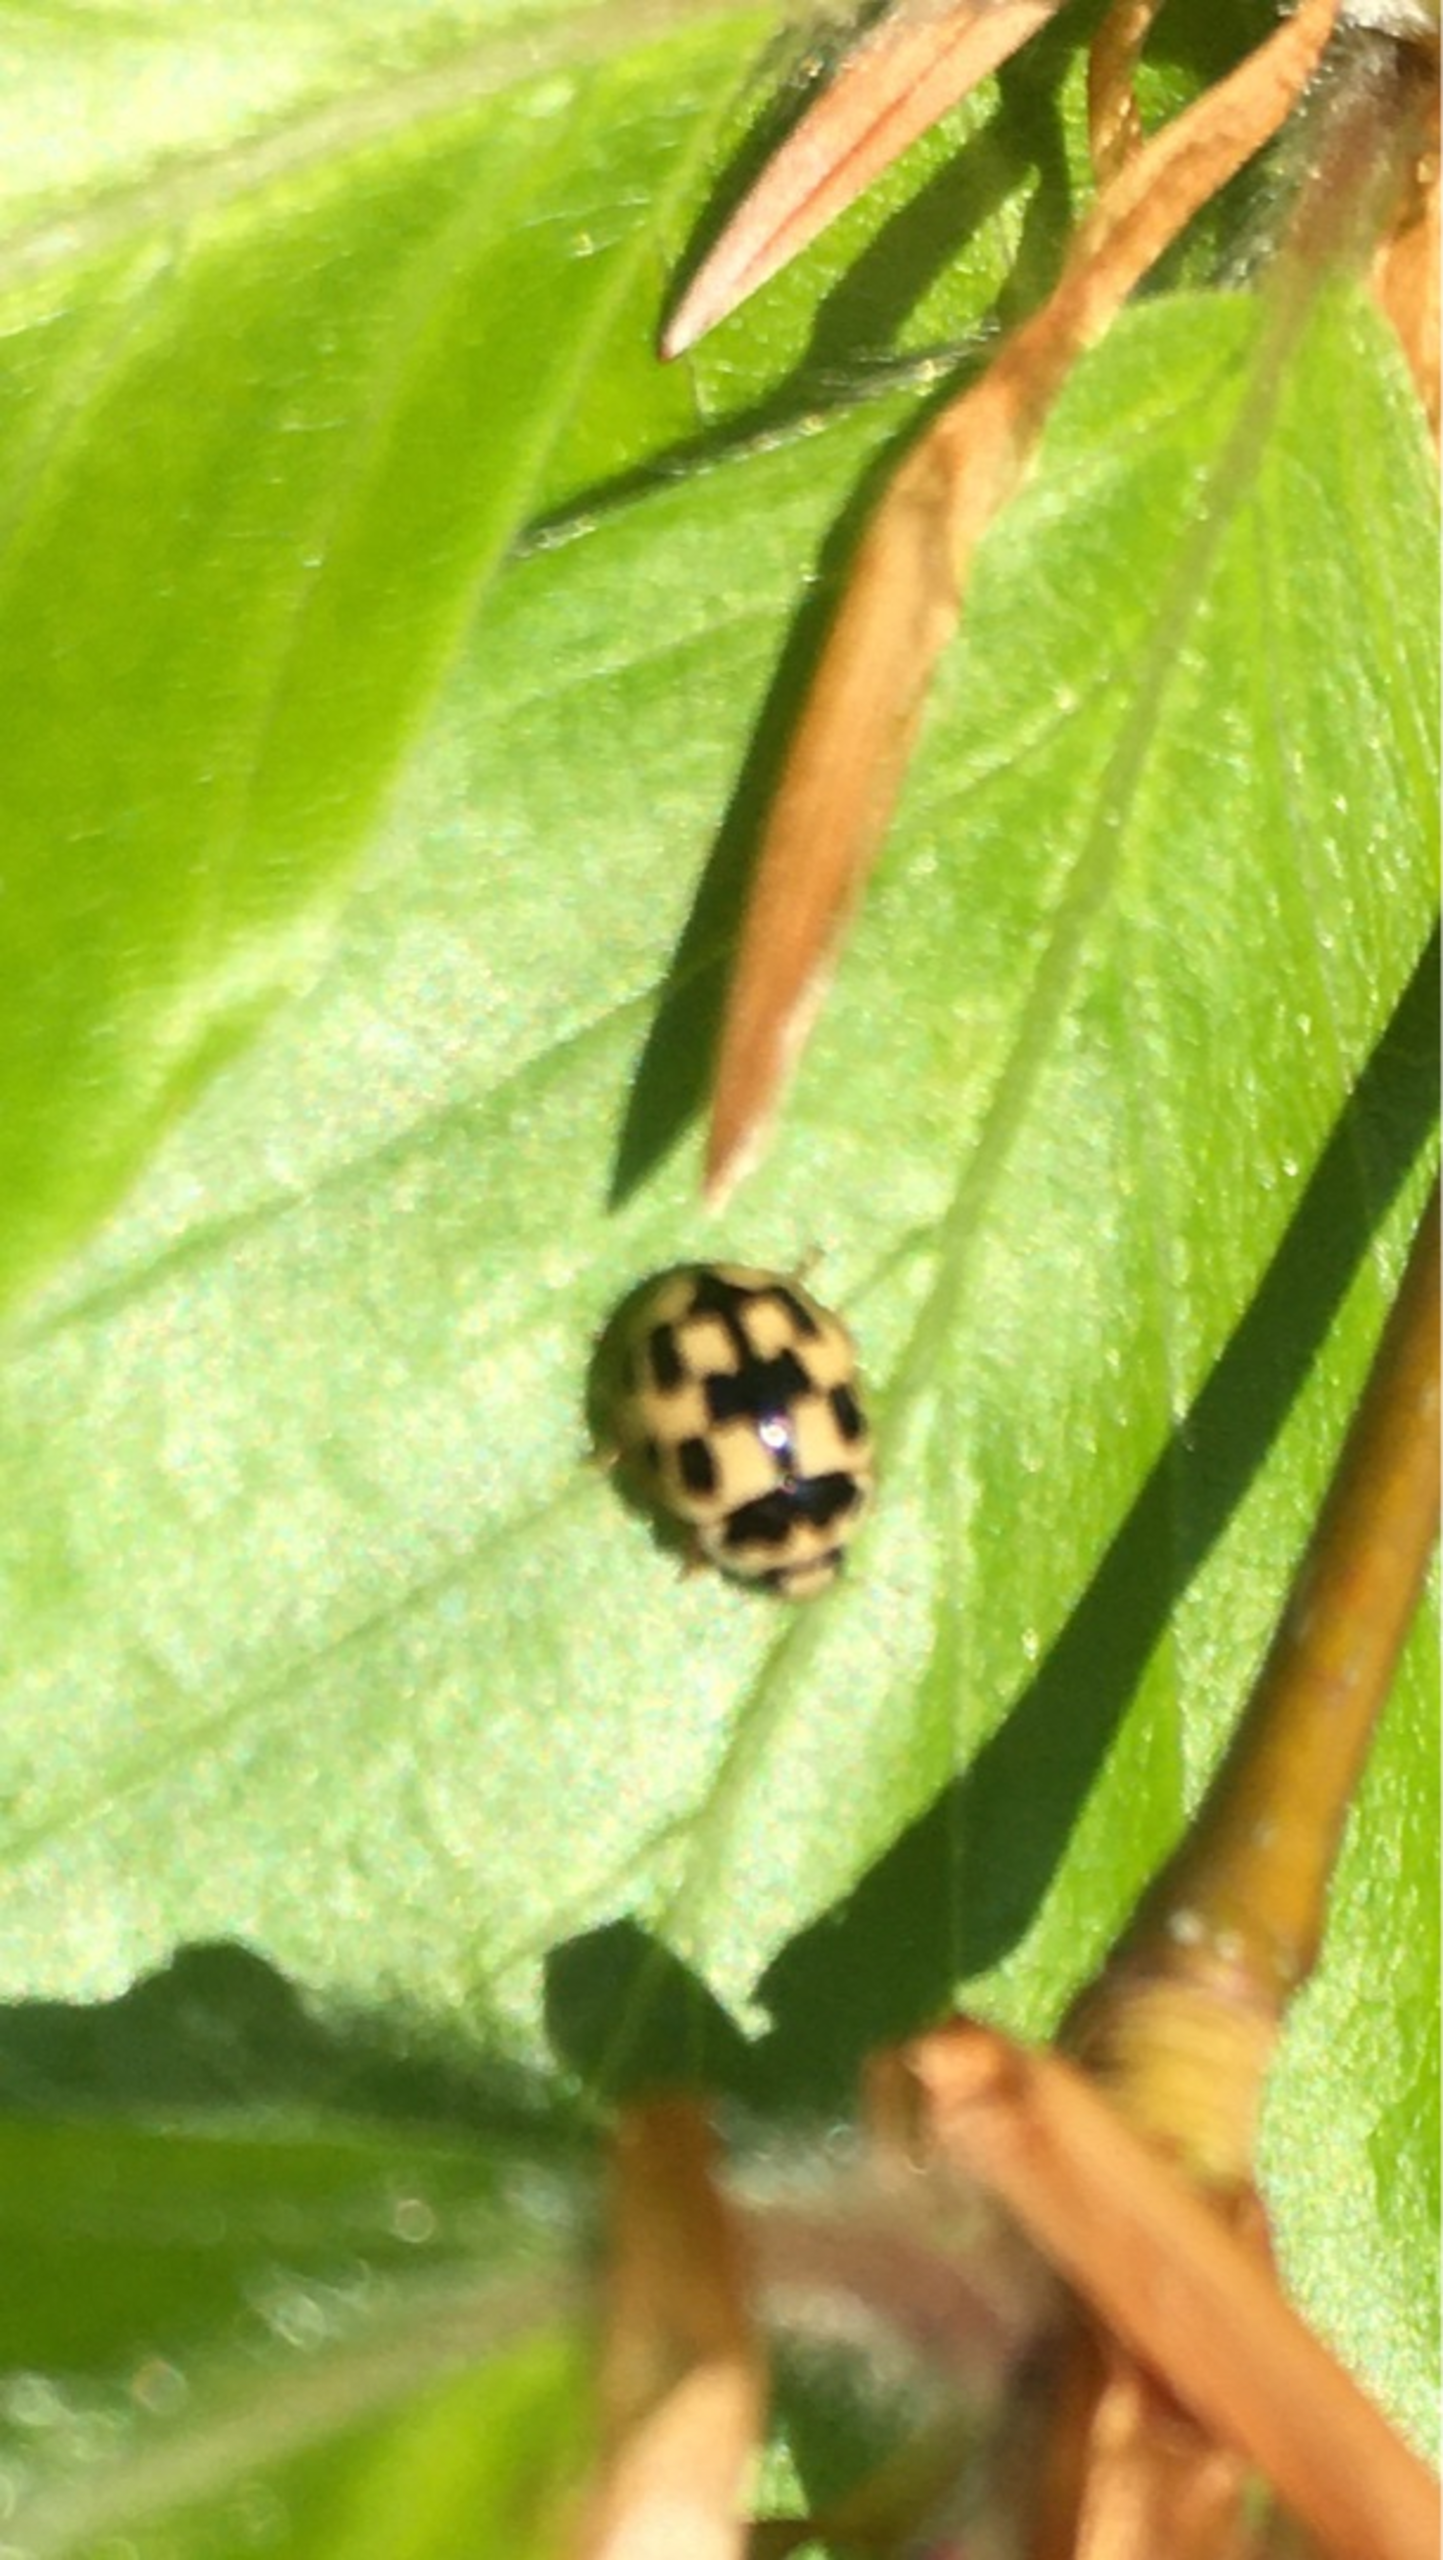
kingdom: Animalia
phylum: Arthropoda
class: Insecta
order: Coleoptera
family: Coccinellidae
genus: Propylaea
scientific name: Propylaea quatuordecimpunctata
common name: Skakbræt
